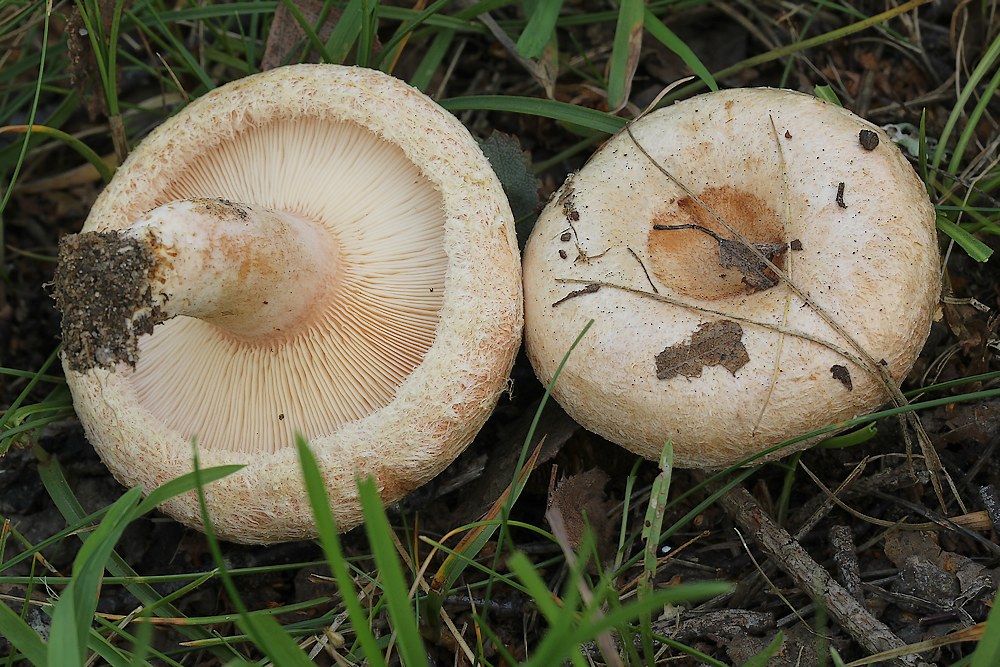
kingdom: Fungi
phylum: Basidiomycota
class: Agaricomycetes
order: Russulales
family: Russulaceae
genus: Lactarius
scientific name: Lactarius pubescens
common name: dunet mælkehat
